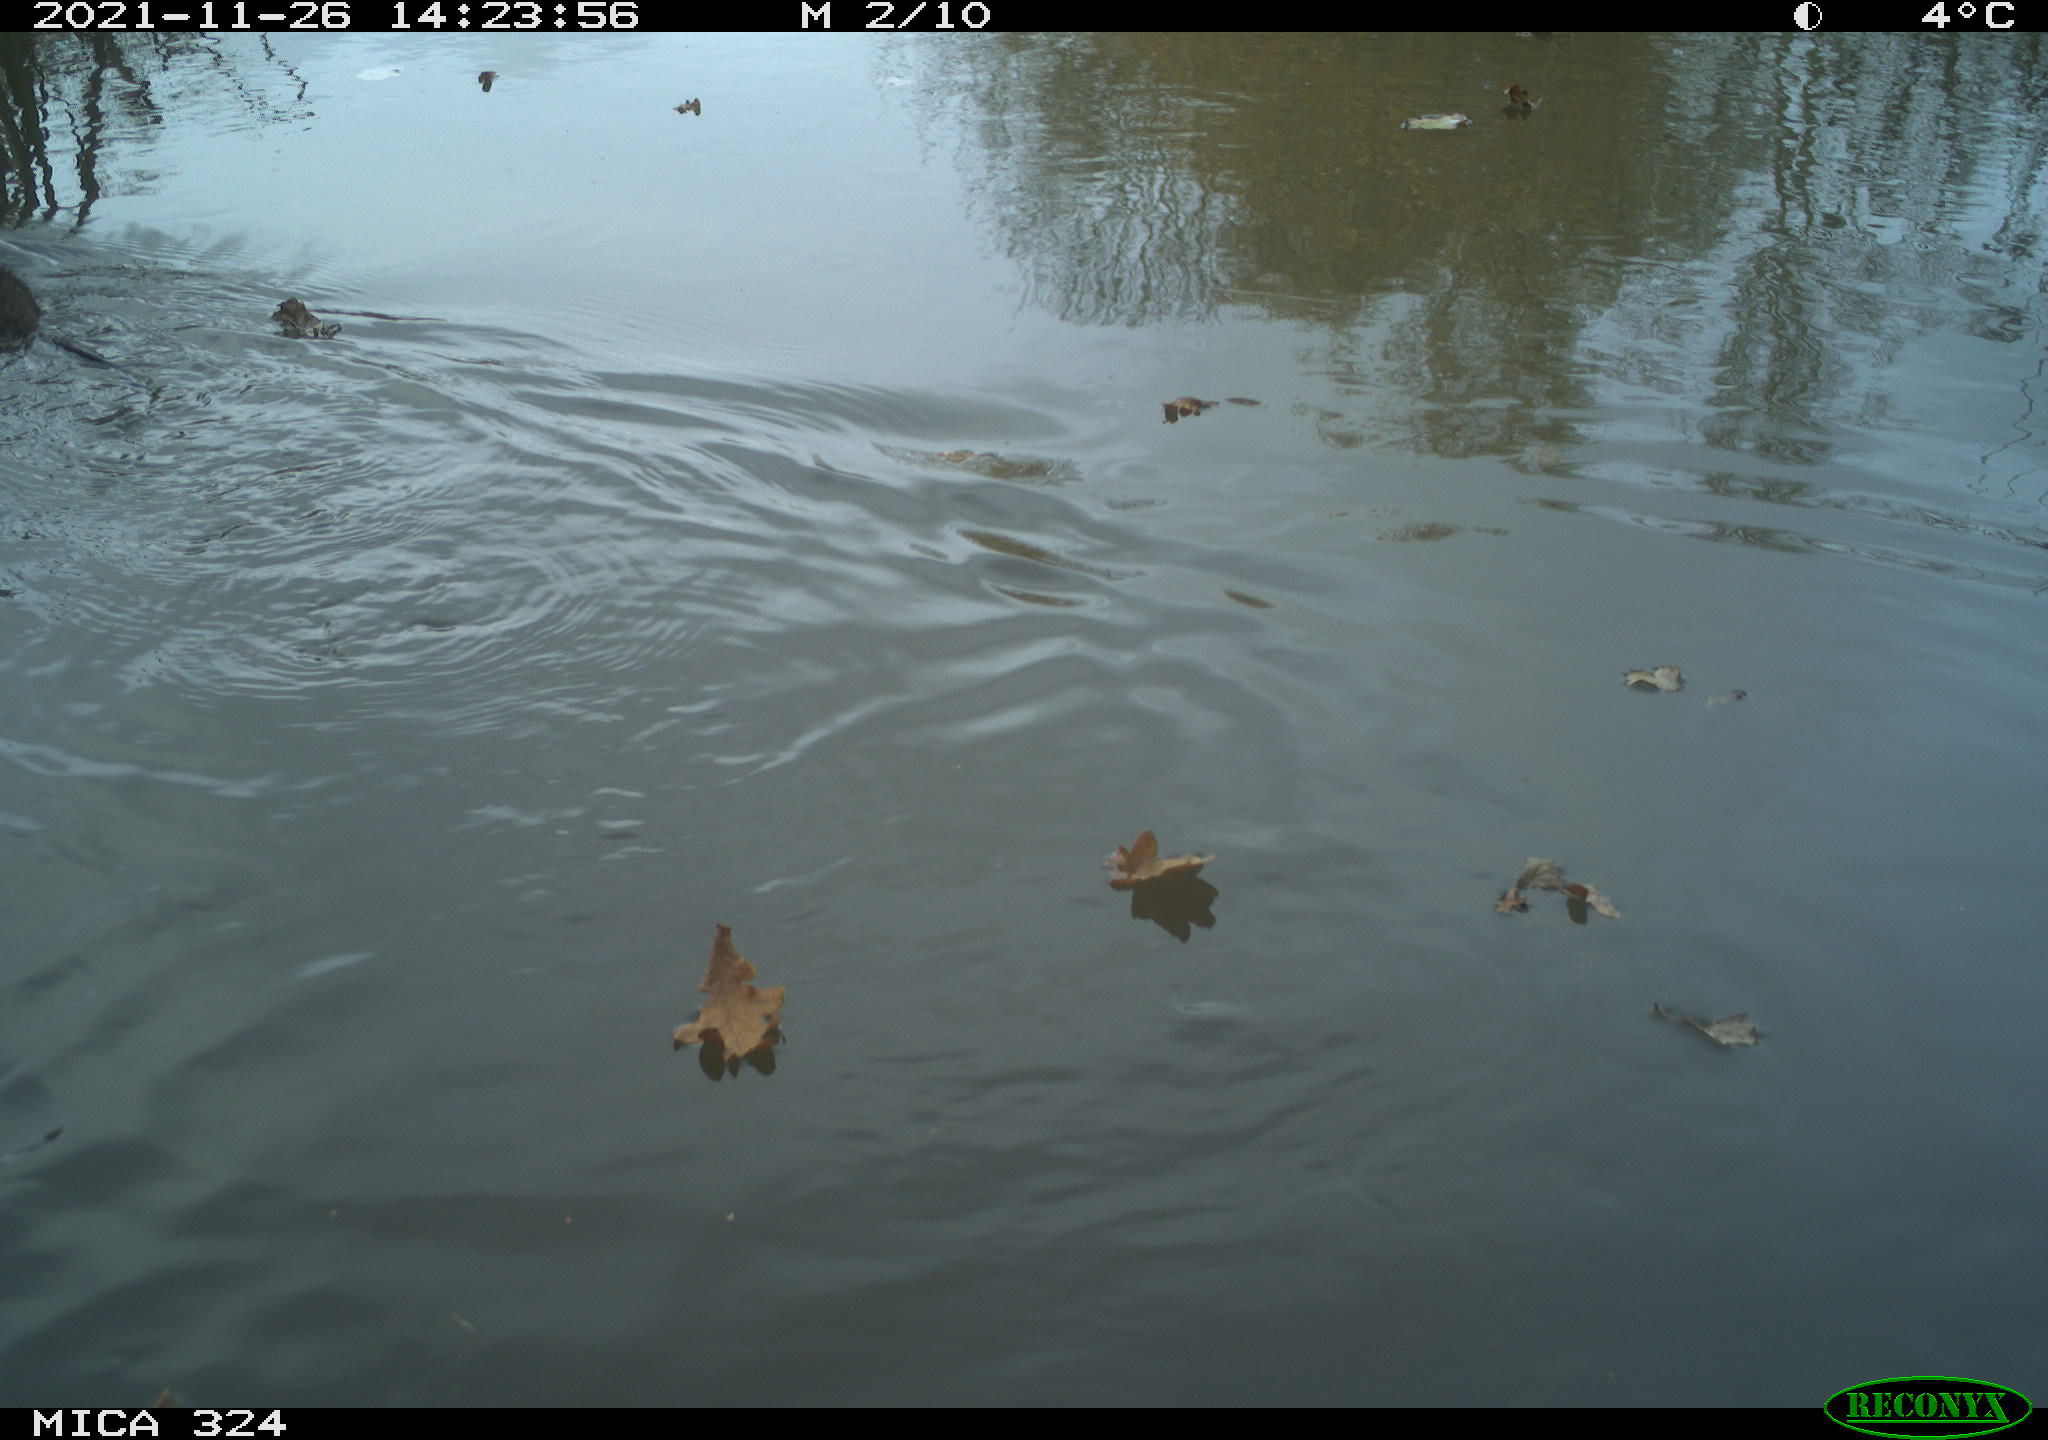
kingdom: Animalia
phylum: Chordata
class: Mammalia
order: Rodentia
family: Cricetidae
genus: Ondatra
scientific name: Ondatra zibethicus
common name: Muskrat
